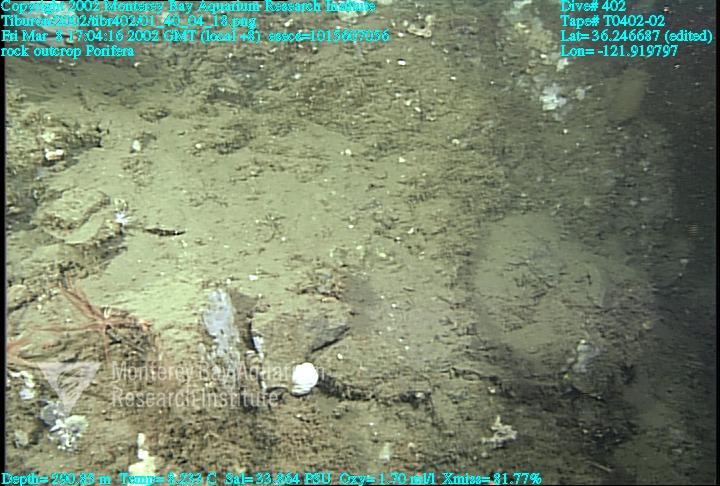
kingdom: Animalia
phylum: Porifera
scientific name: Porifera
